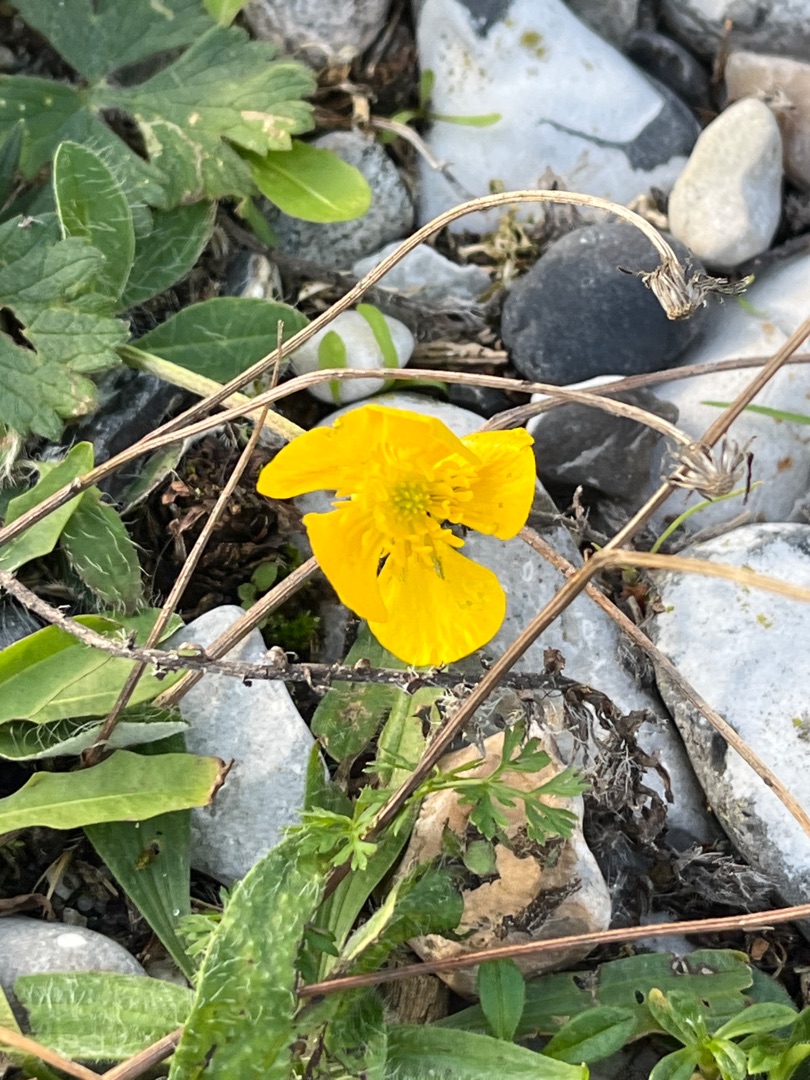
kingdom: Plantae
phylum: Tracheophyta
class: Magnoliopsida
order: Ranunculales
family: Ranunculaceae
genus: Ranunculus
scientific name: Ranunculus bulbosus
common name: Knold-ranunkel
